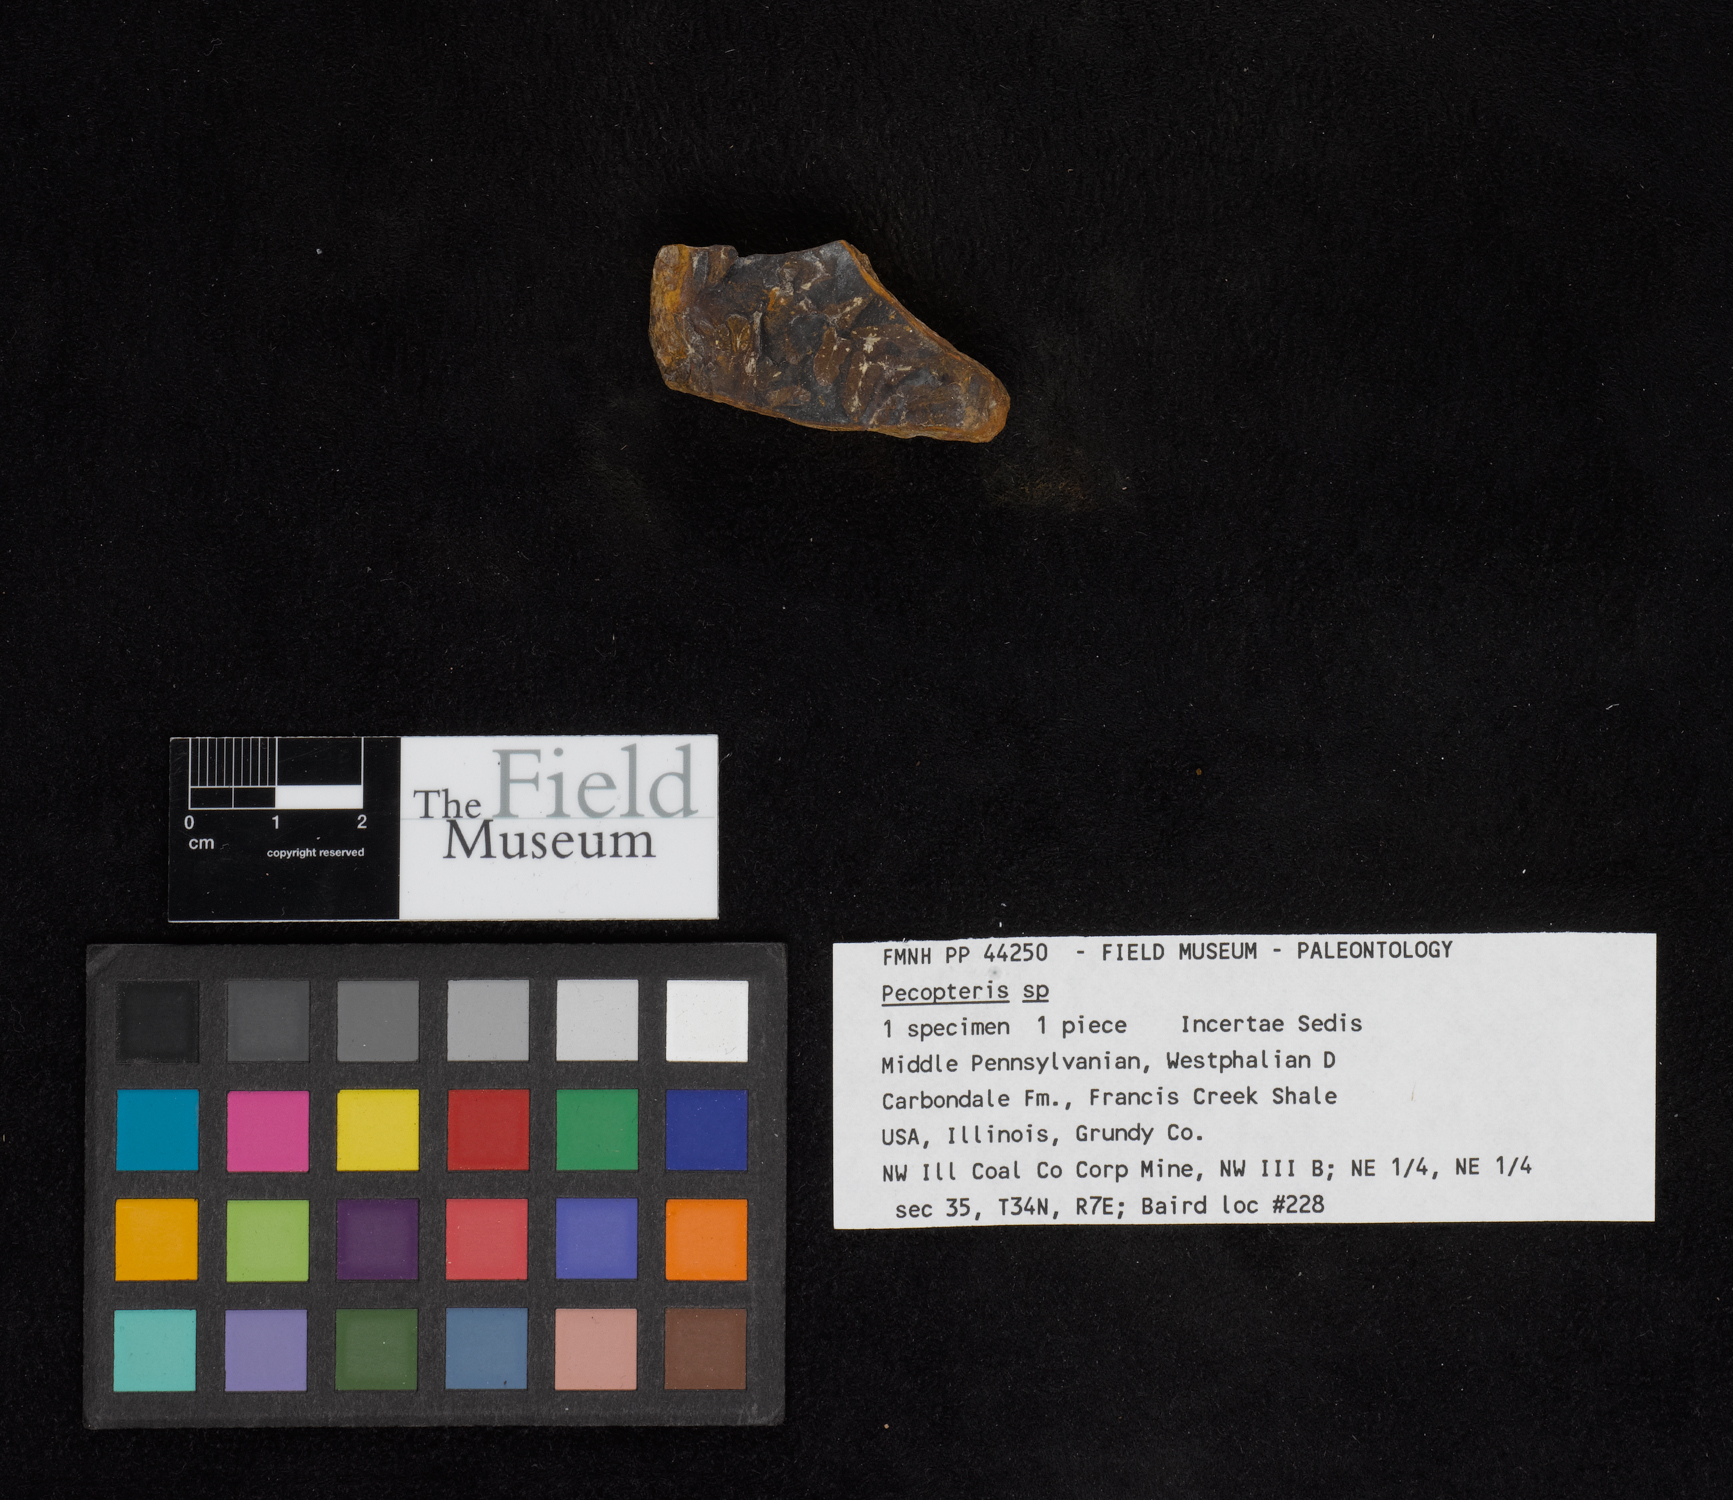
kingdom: Plantae
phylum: Tracheophyta
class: Polypodiopsida
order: Marattiales
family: Asterothecaceae
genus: Pecopteris
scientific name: Pecopteris
